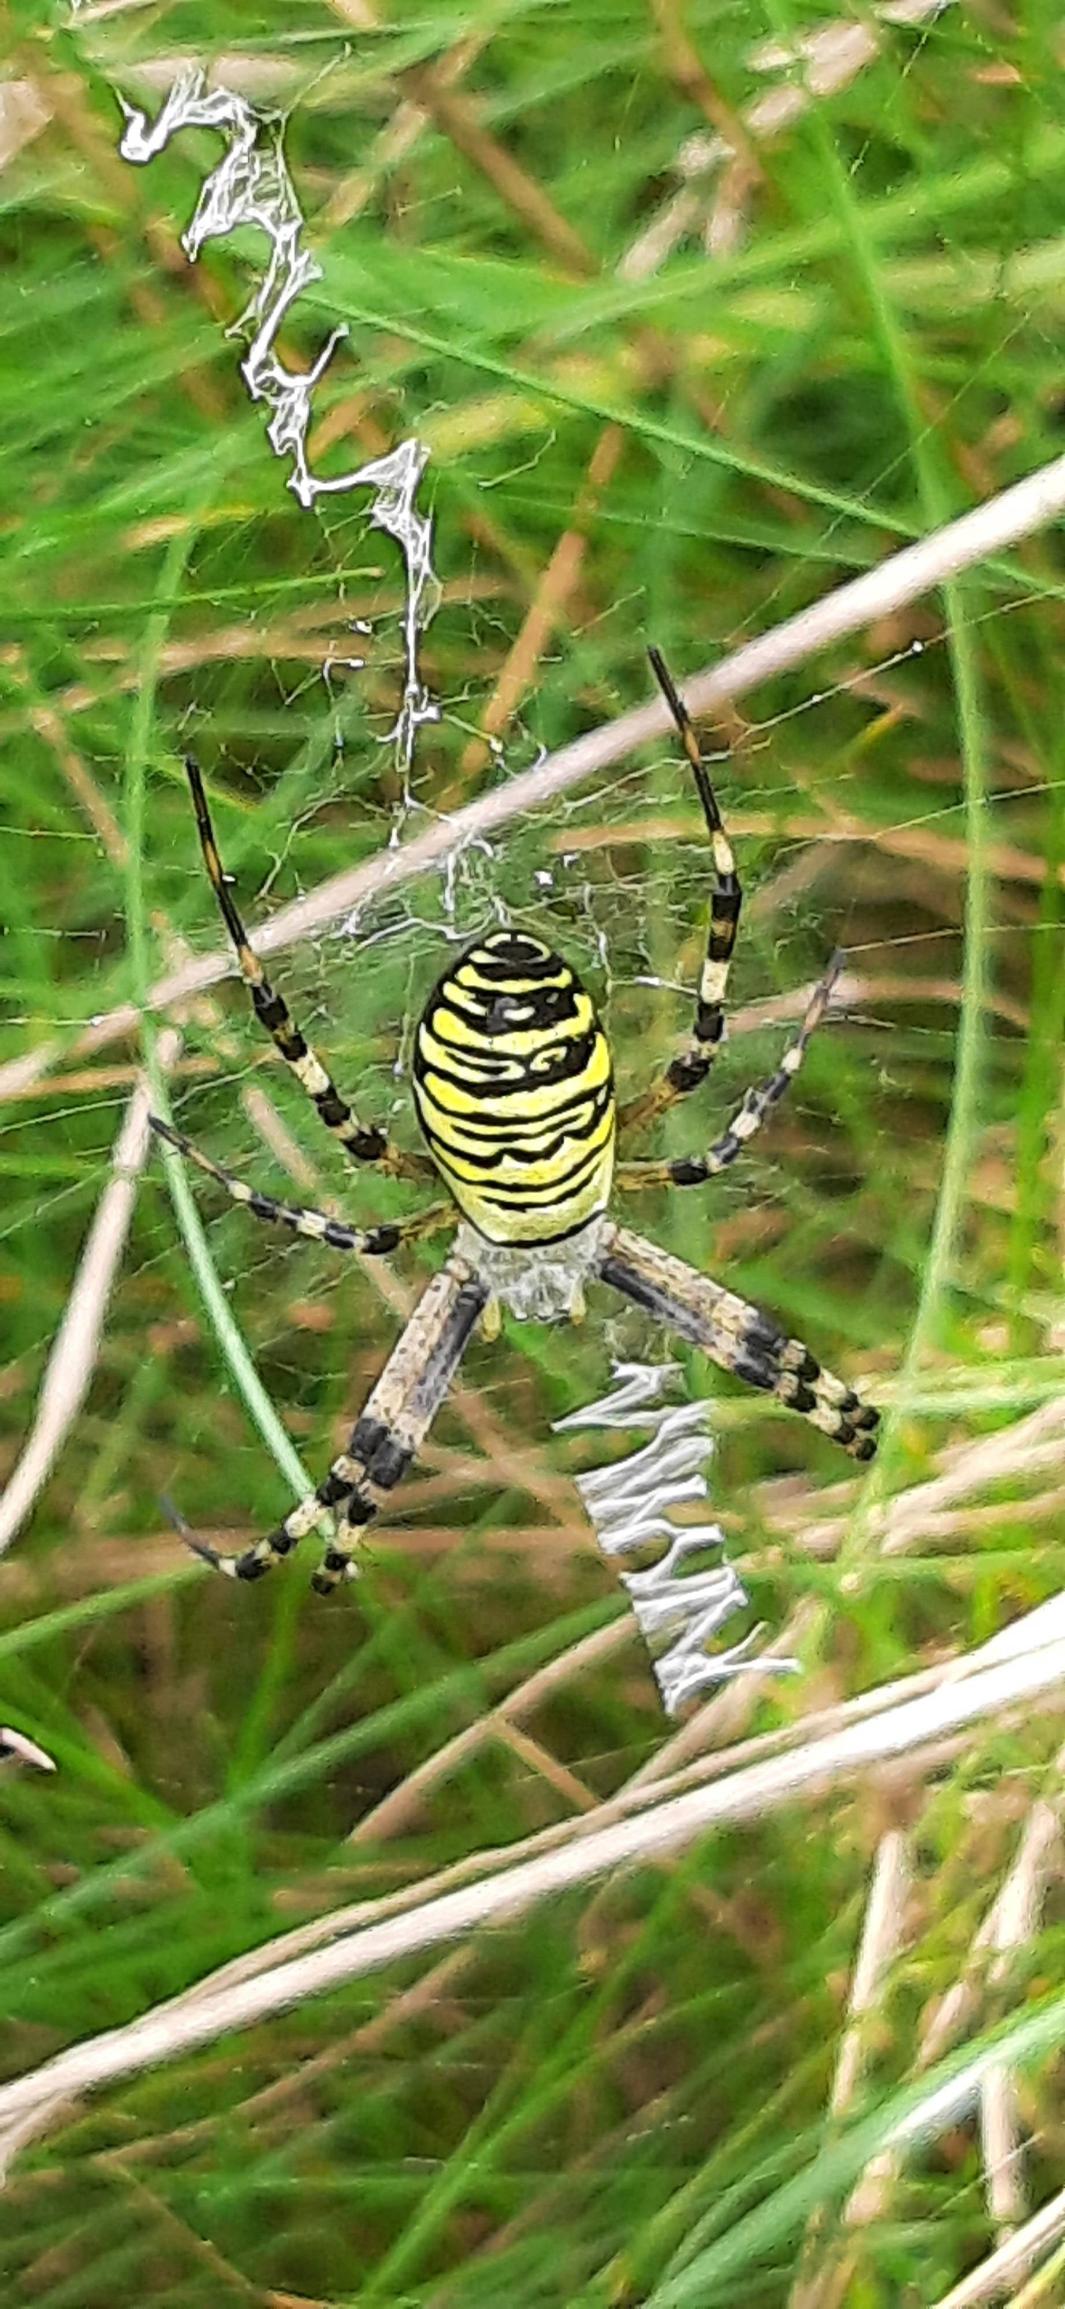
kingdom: Animalia
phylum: Arthropoda
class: Arachnida
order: Araneae
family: Araneidae
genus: Argiope
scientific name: Argiope bruennichi
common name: Hvepseedderkop
